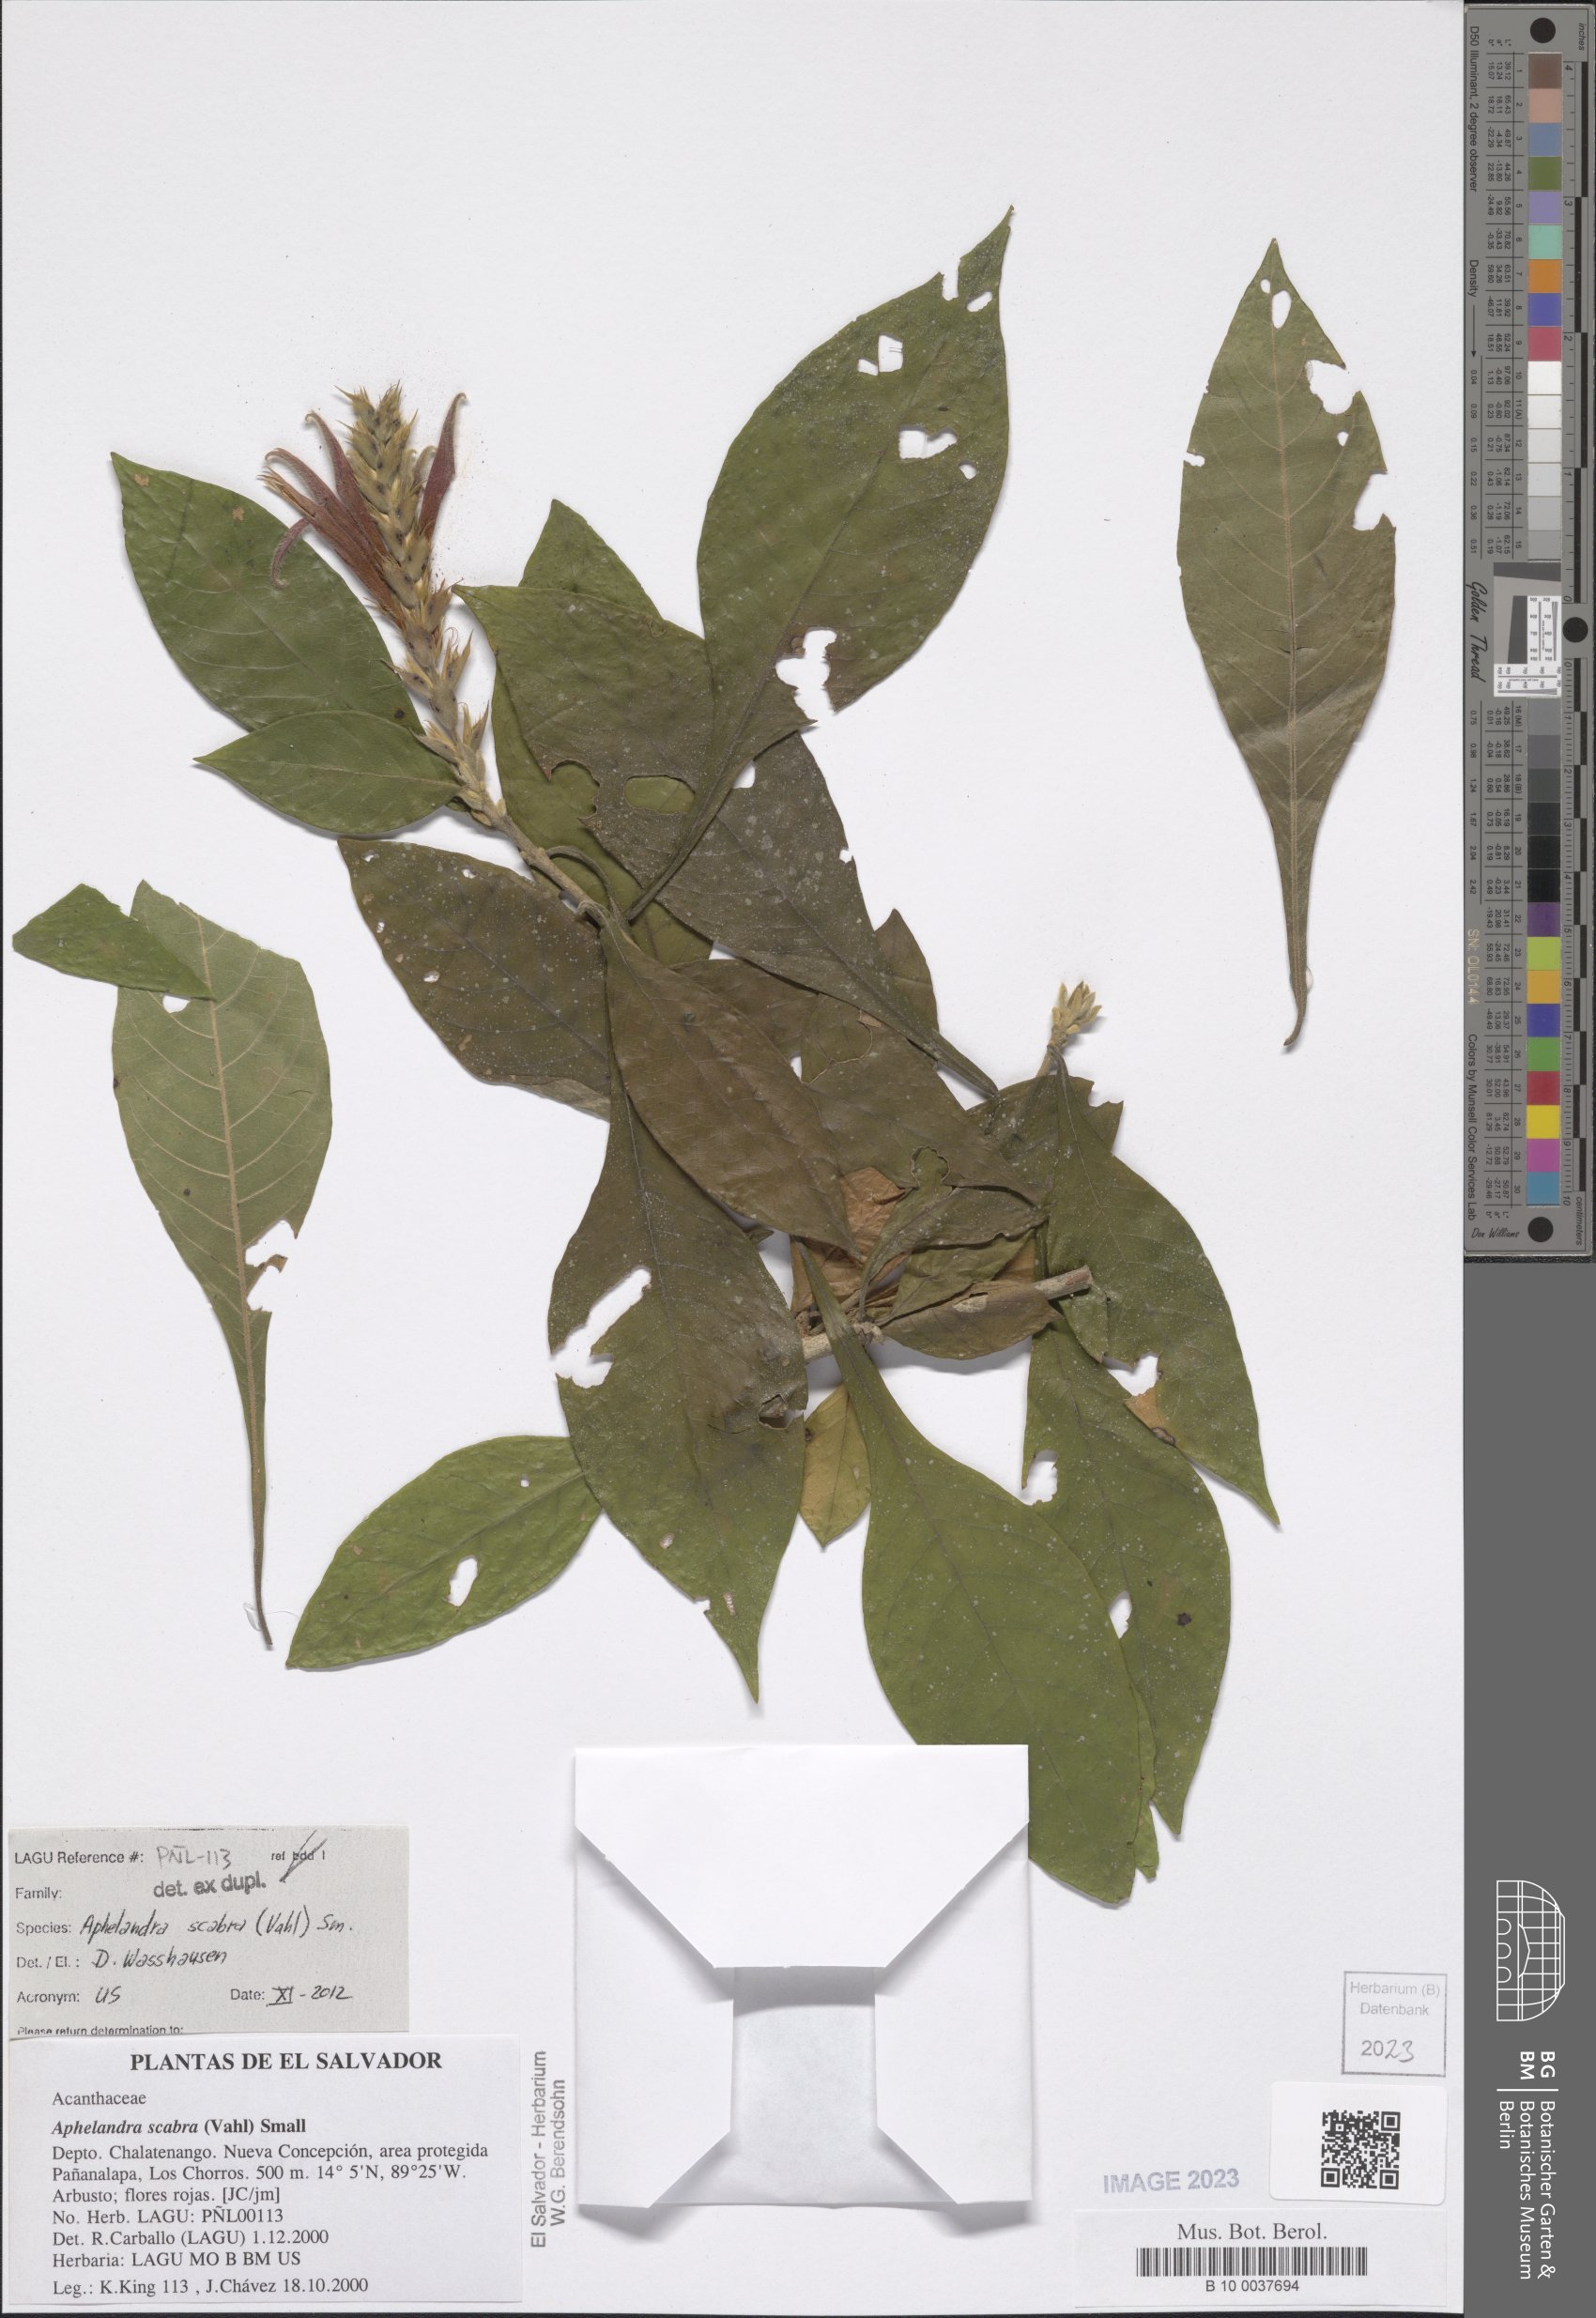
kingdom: Plantae
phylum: Tracheophyta
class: Magnoliopsida
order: Lamiales
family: Acanthaceae
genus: Aphelandra
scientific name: Aphelandra scabra
